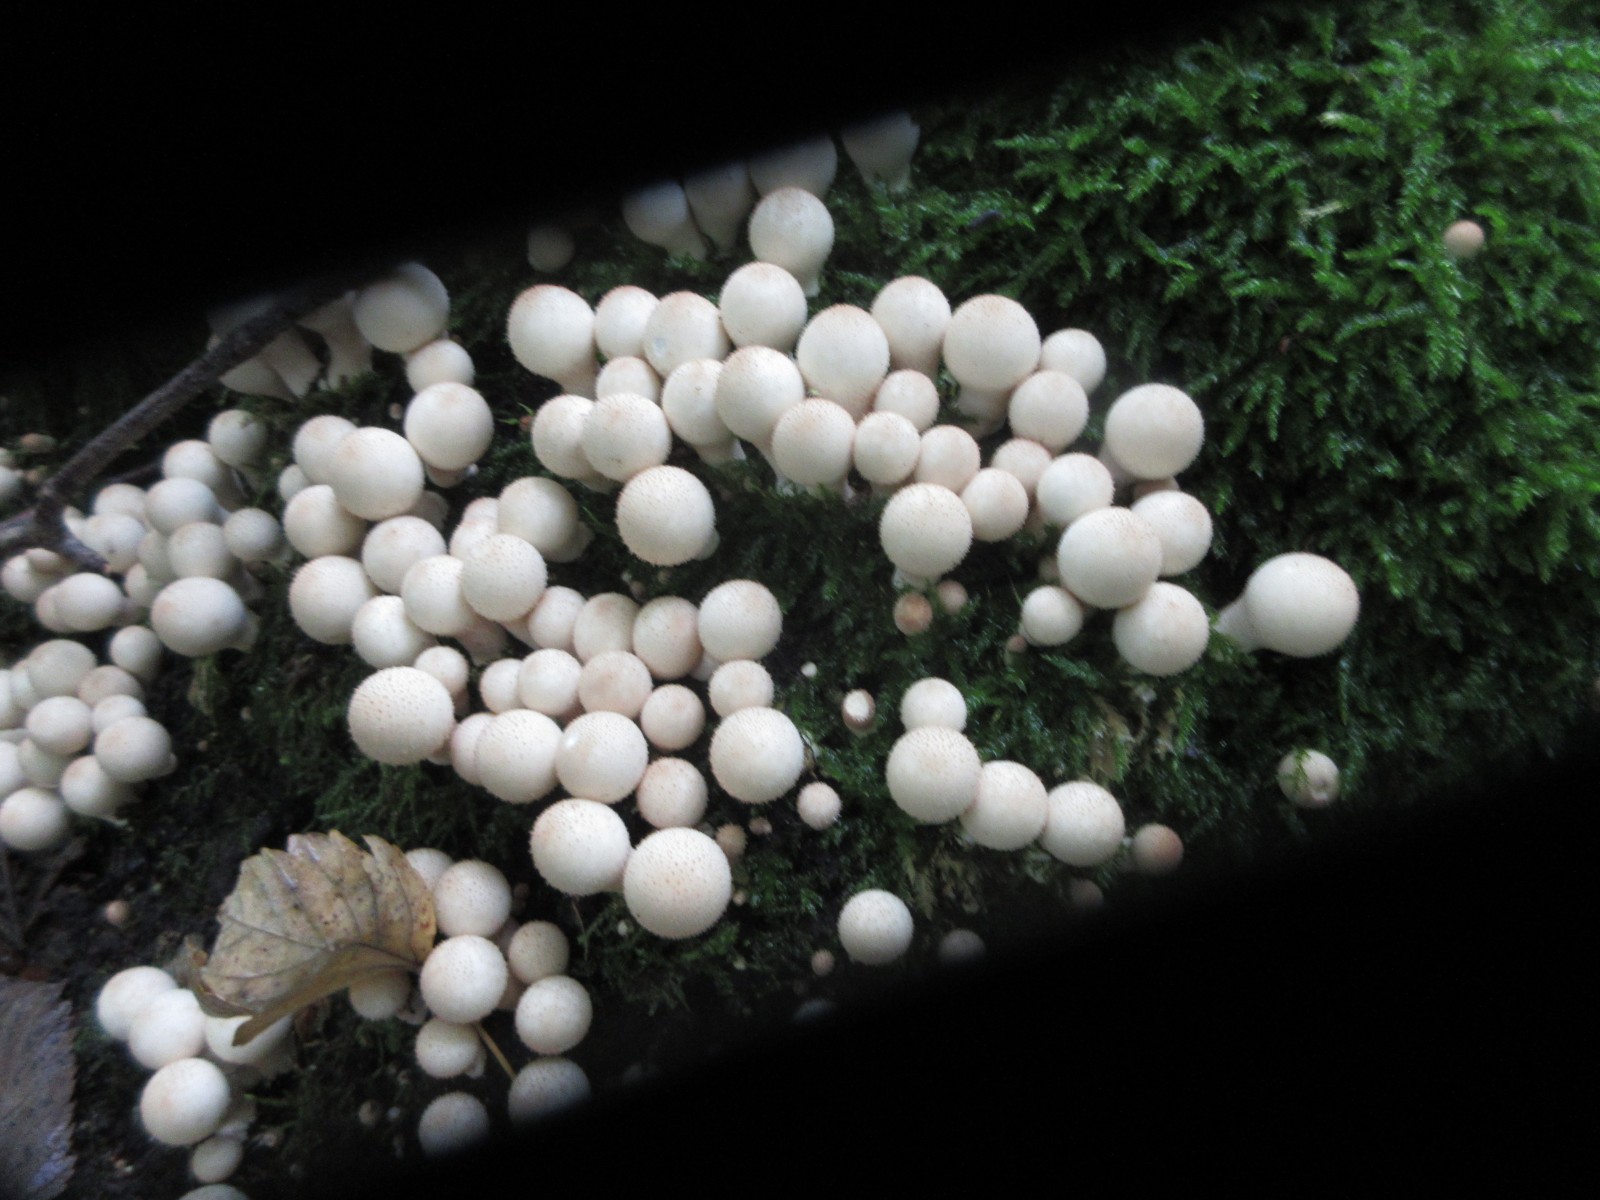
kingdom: Fungi
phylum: Basidiomycota
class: Agaricomycetes
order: Agaricales
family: Lycoperdaceae
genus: Apioperdon
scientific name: Apioperdon pyriforme
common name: pære-støvbold
